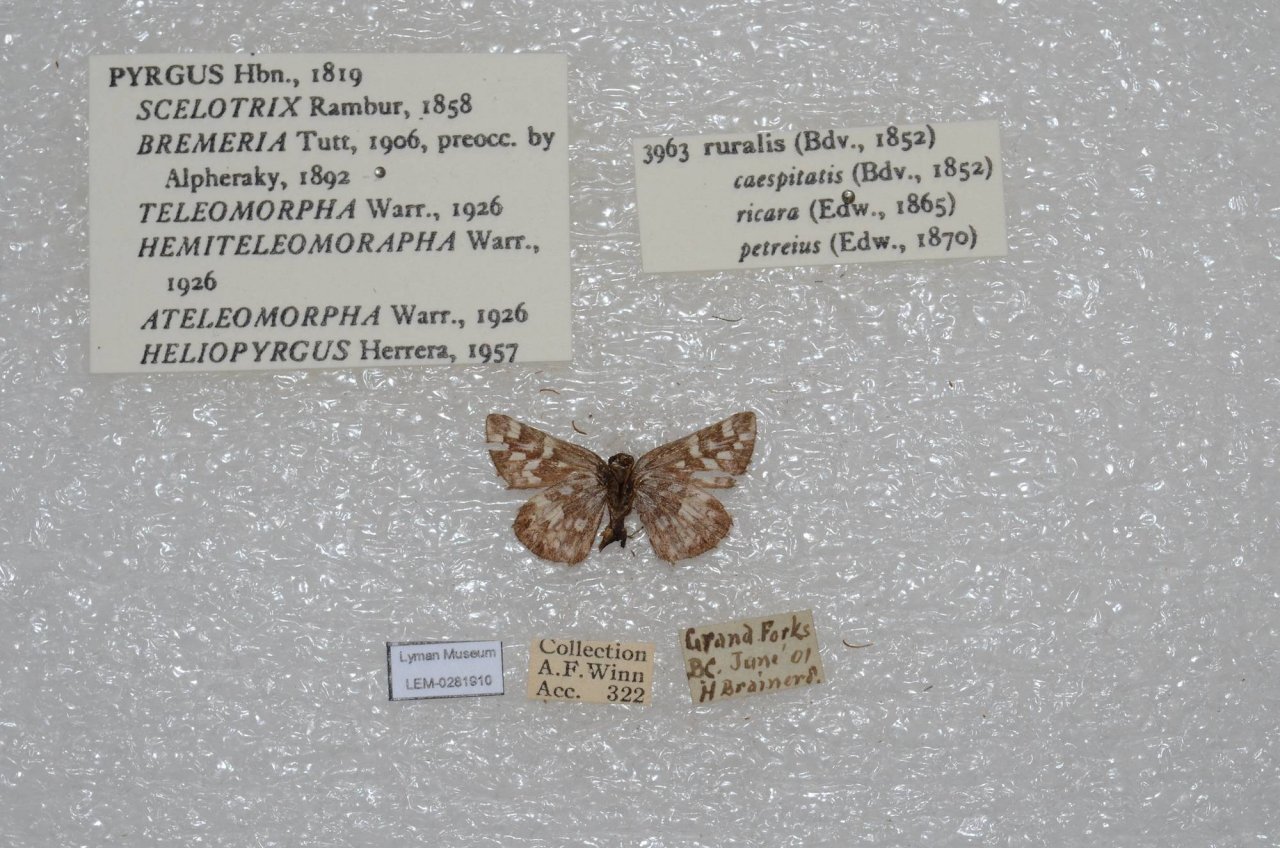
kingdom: Animalia
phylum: Arthropoda
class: Insecta
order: Lepidoptera
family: Hesperiidae
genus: Pyrgus
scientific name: Pyrgus ruralis
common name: Two-banded Checkered-Skipper
